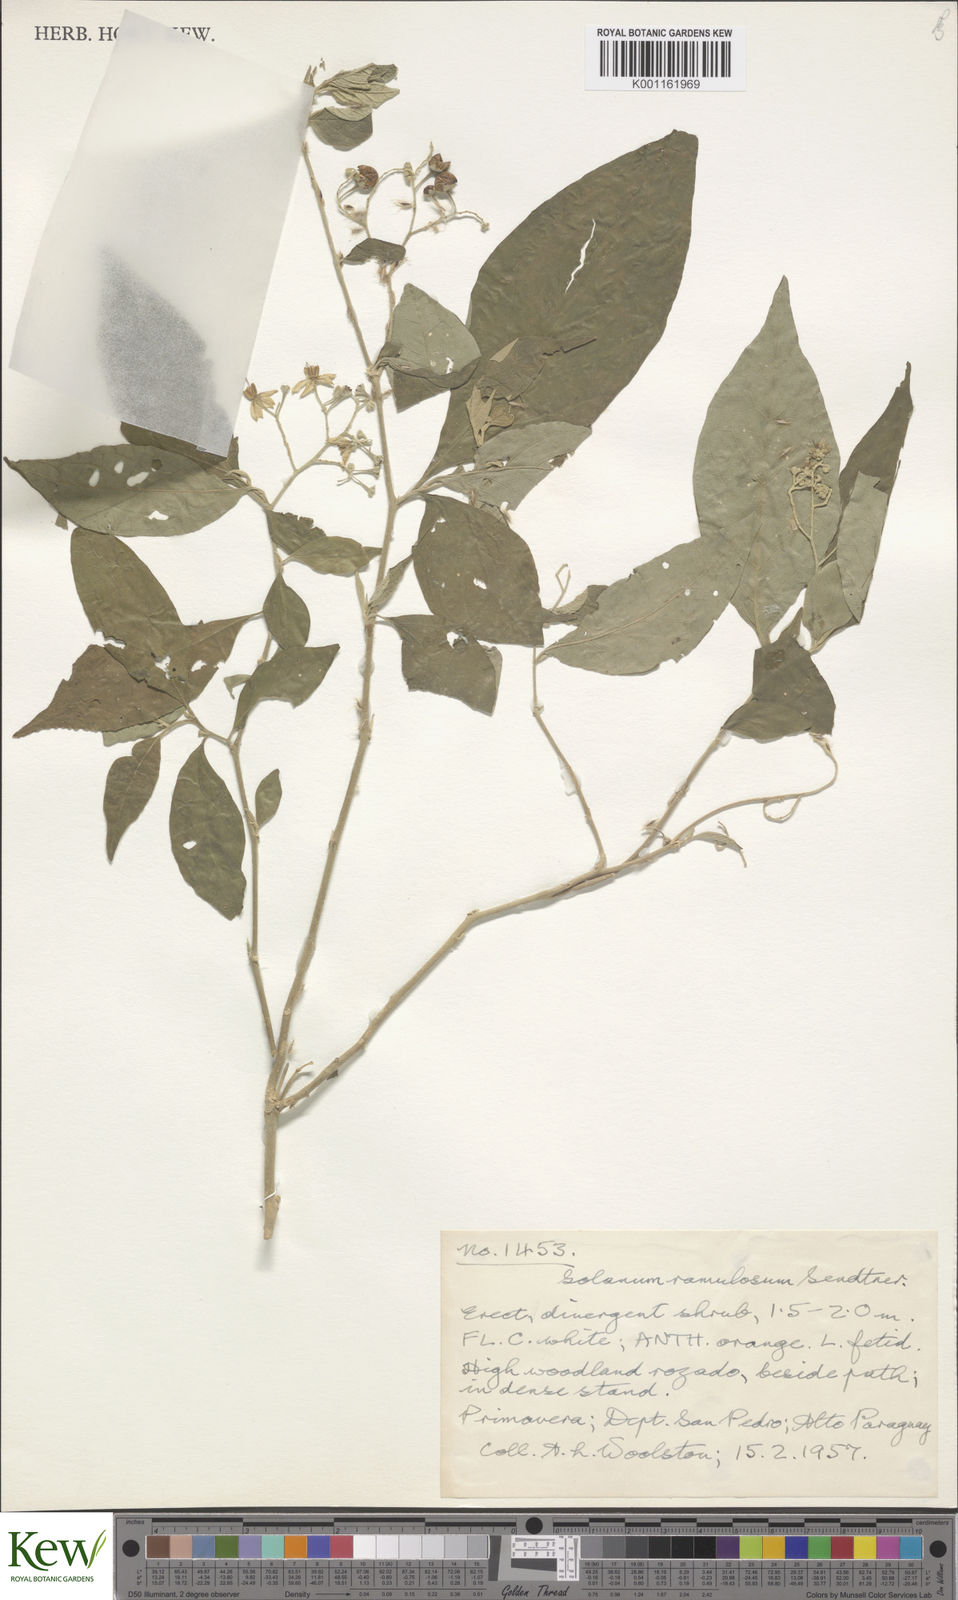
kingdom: Plantae
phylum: Tracheophyta
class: Magnoliopsida
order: Solanales
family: Solanaceae
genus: Solanum
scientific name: Solanum ramulosum
